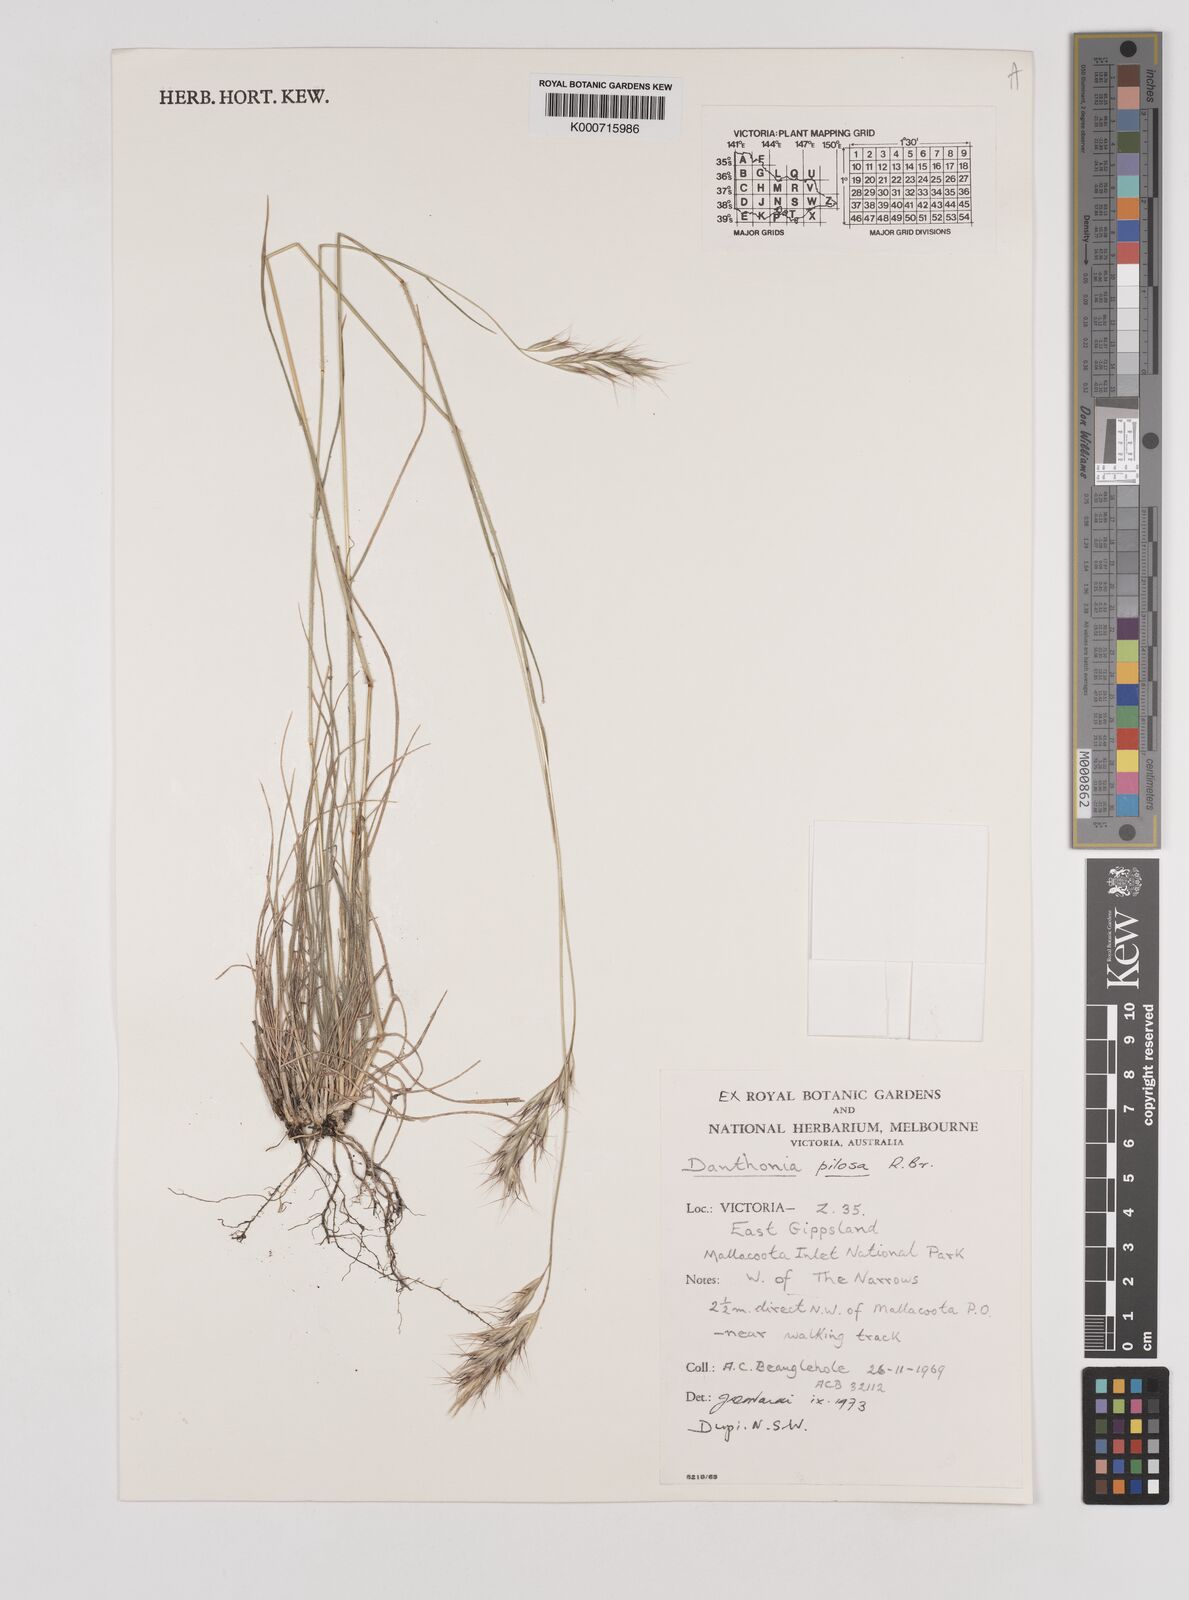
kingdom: Plantae
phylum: Tracheophyta
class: Liliopsida
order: Poales
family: Poaceae
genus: Rytidosperma
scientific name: Rytidosperma pilosum
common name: Hairy wallaby grass
